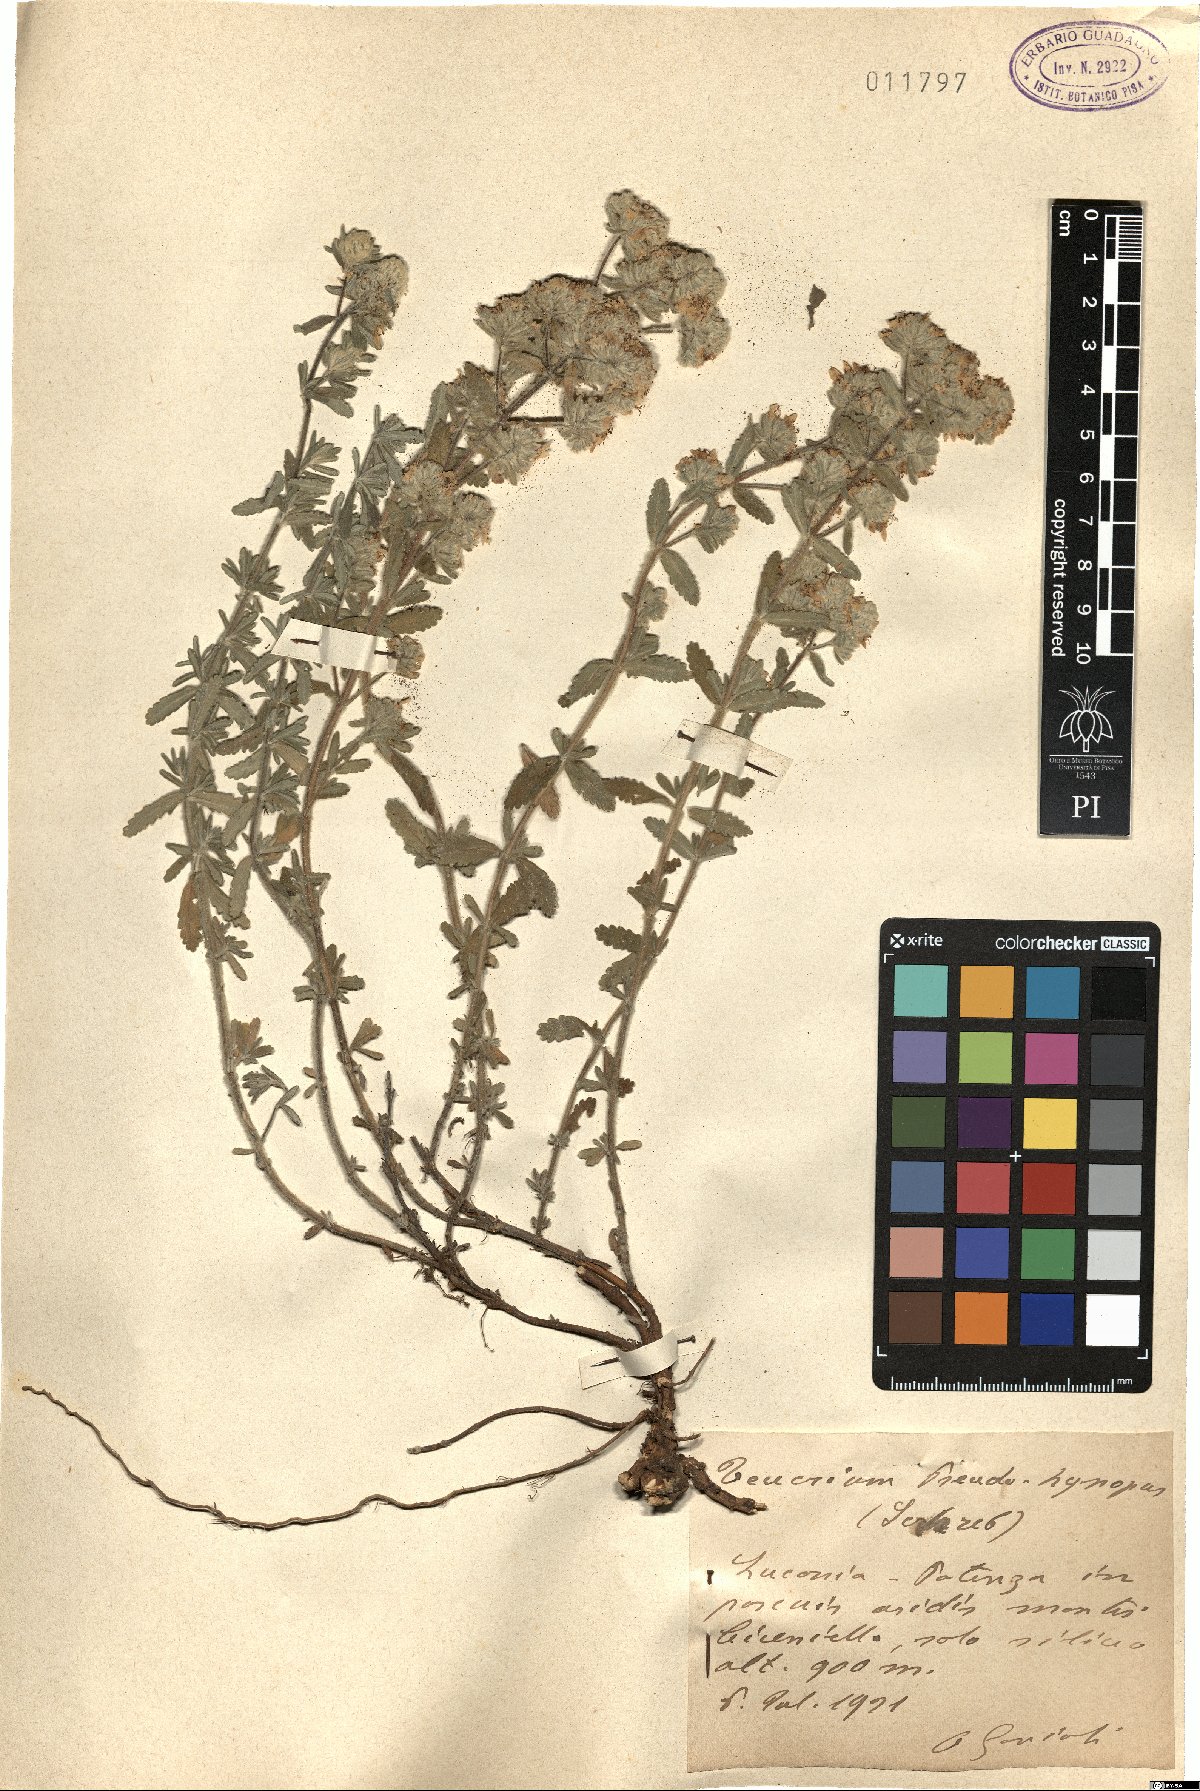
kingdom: Plantae
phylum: Tracheophyta
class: Magnoliopsida
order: Lamiales
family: Lamiaceae
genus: Teucrium
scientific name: Teucrium polium
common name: Poley
